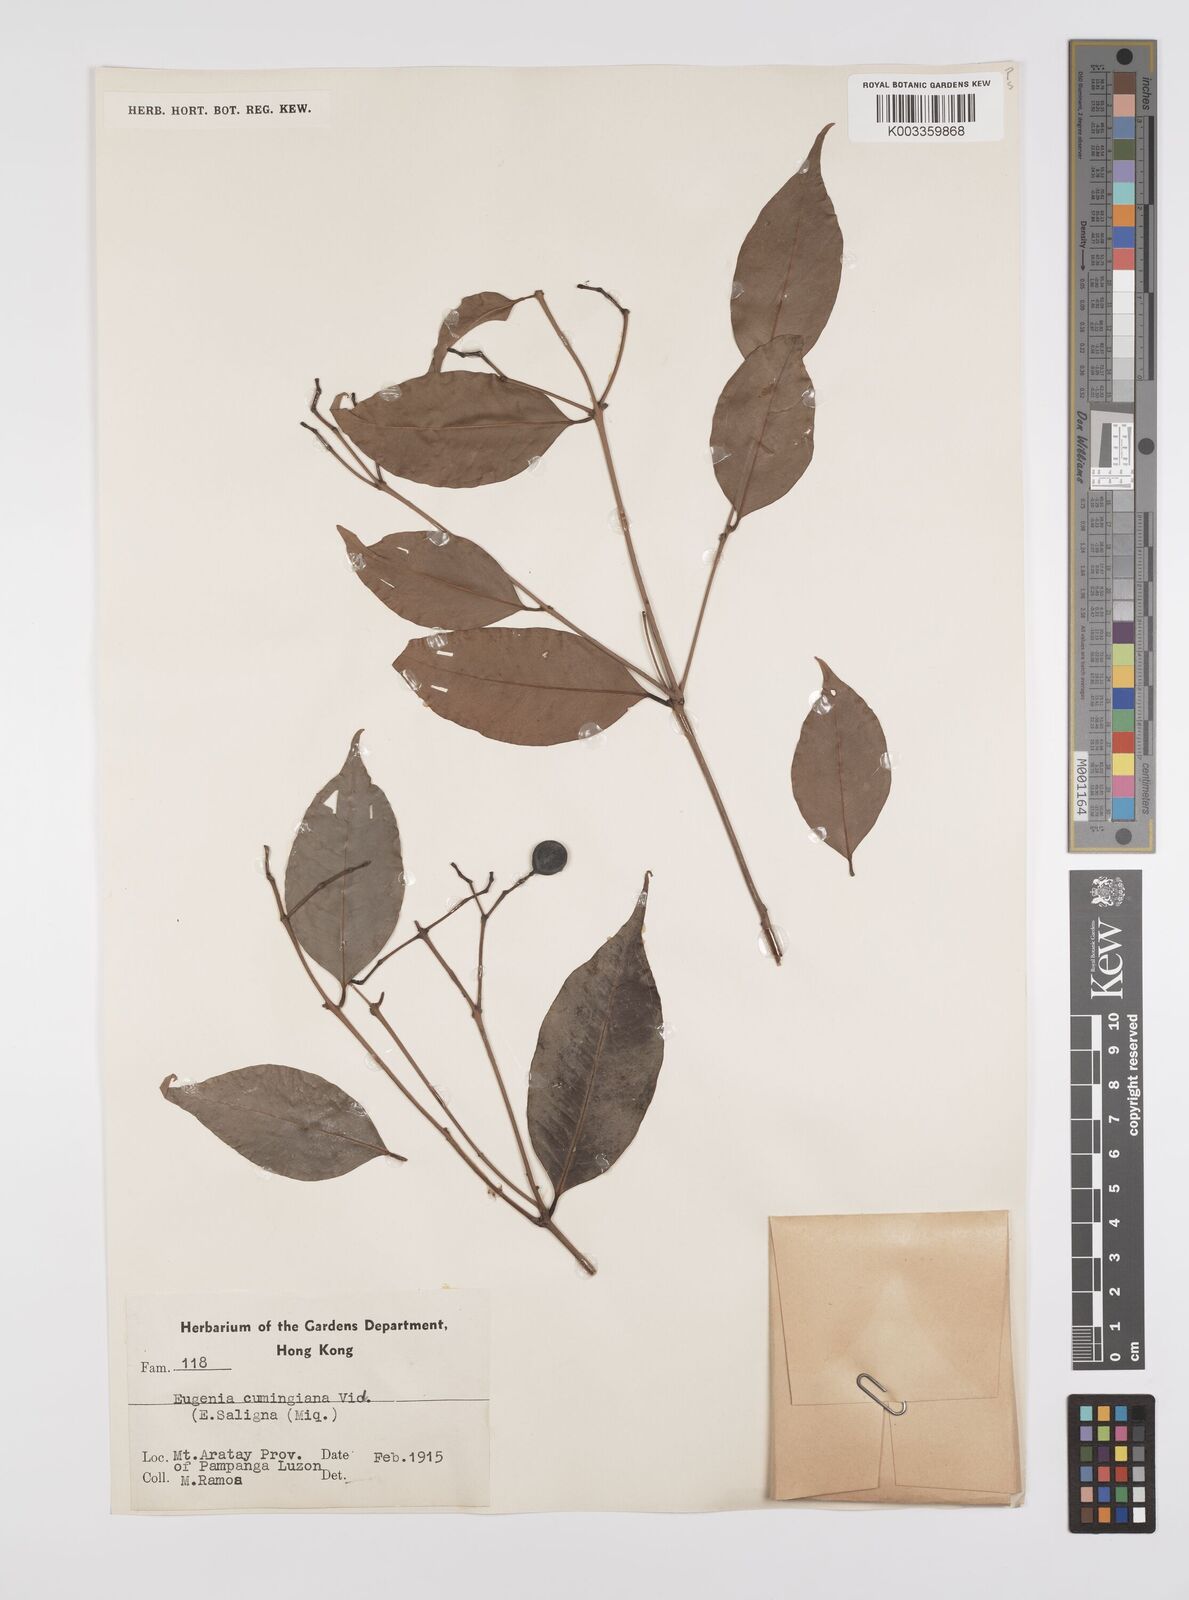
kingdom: Plantae
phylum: Tracheophyta
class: Magnoliopsida
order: Myrtales
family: Myrtaceae
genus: Syzygium
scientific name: Syzygium acuminatissimum
